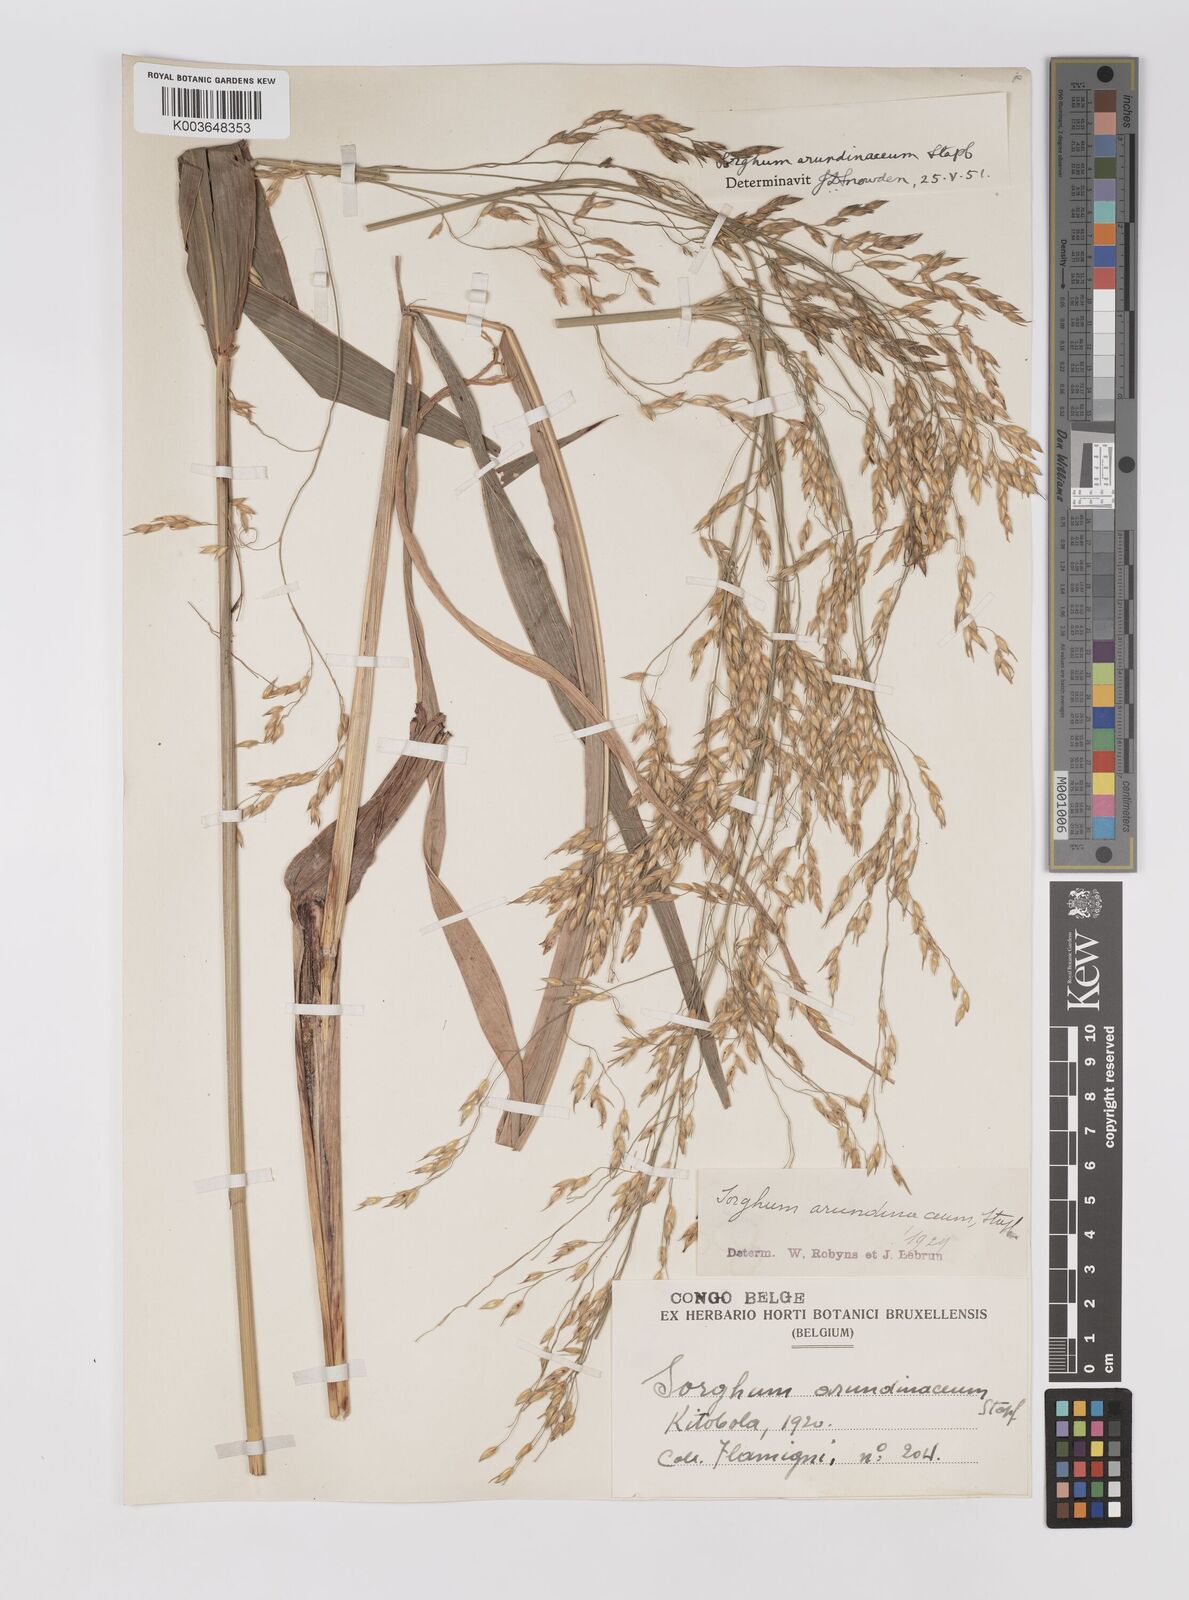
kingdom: Plantae
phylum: Tracheophyta
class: Liliopsida
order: Poales
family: Poaceae
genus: Sorghum
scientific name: Sorghum arundinaceum
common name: Sorghum
